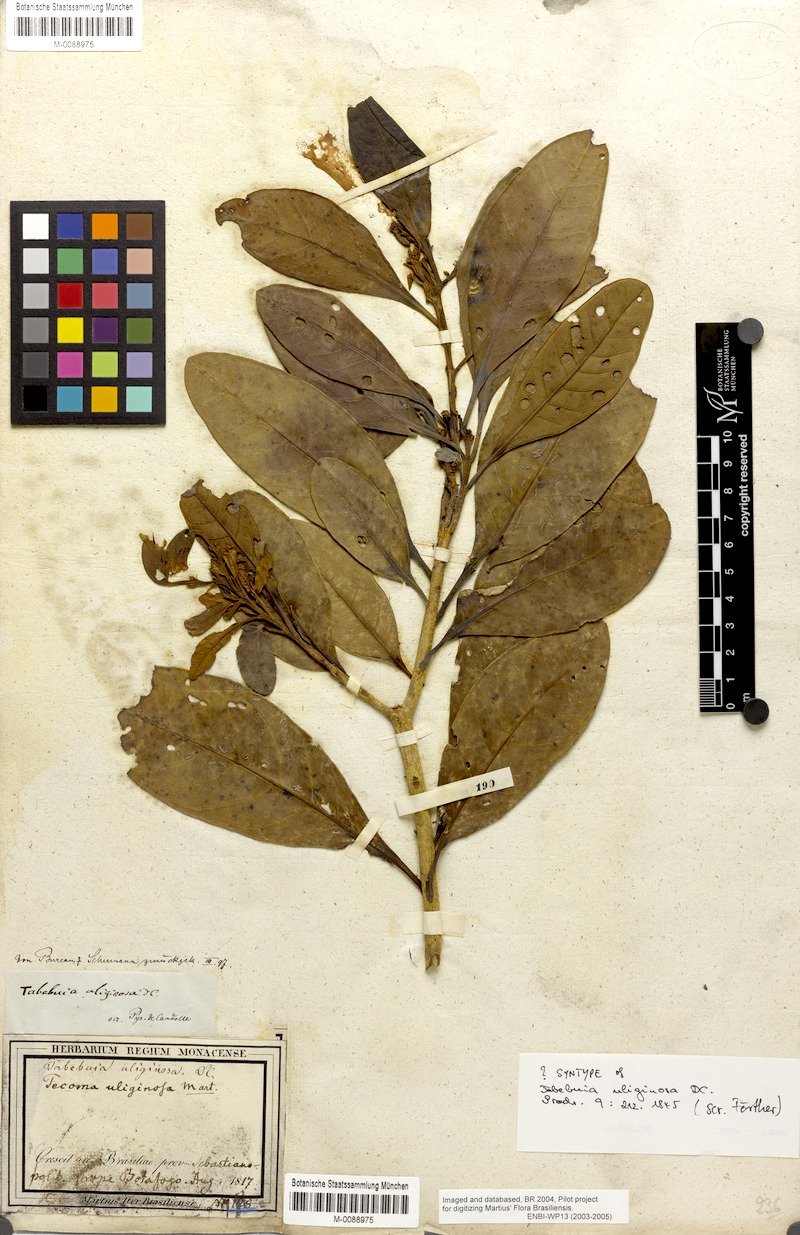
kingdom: Plantae
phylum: Tracheophyta
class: Magnoliopsida
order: Lamiales
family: Bignoniaceae
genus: Tabebuia
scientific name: Tabebuia cassinoides
